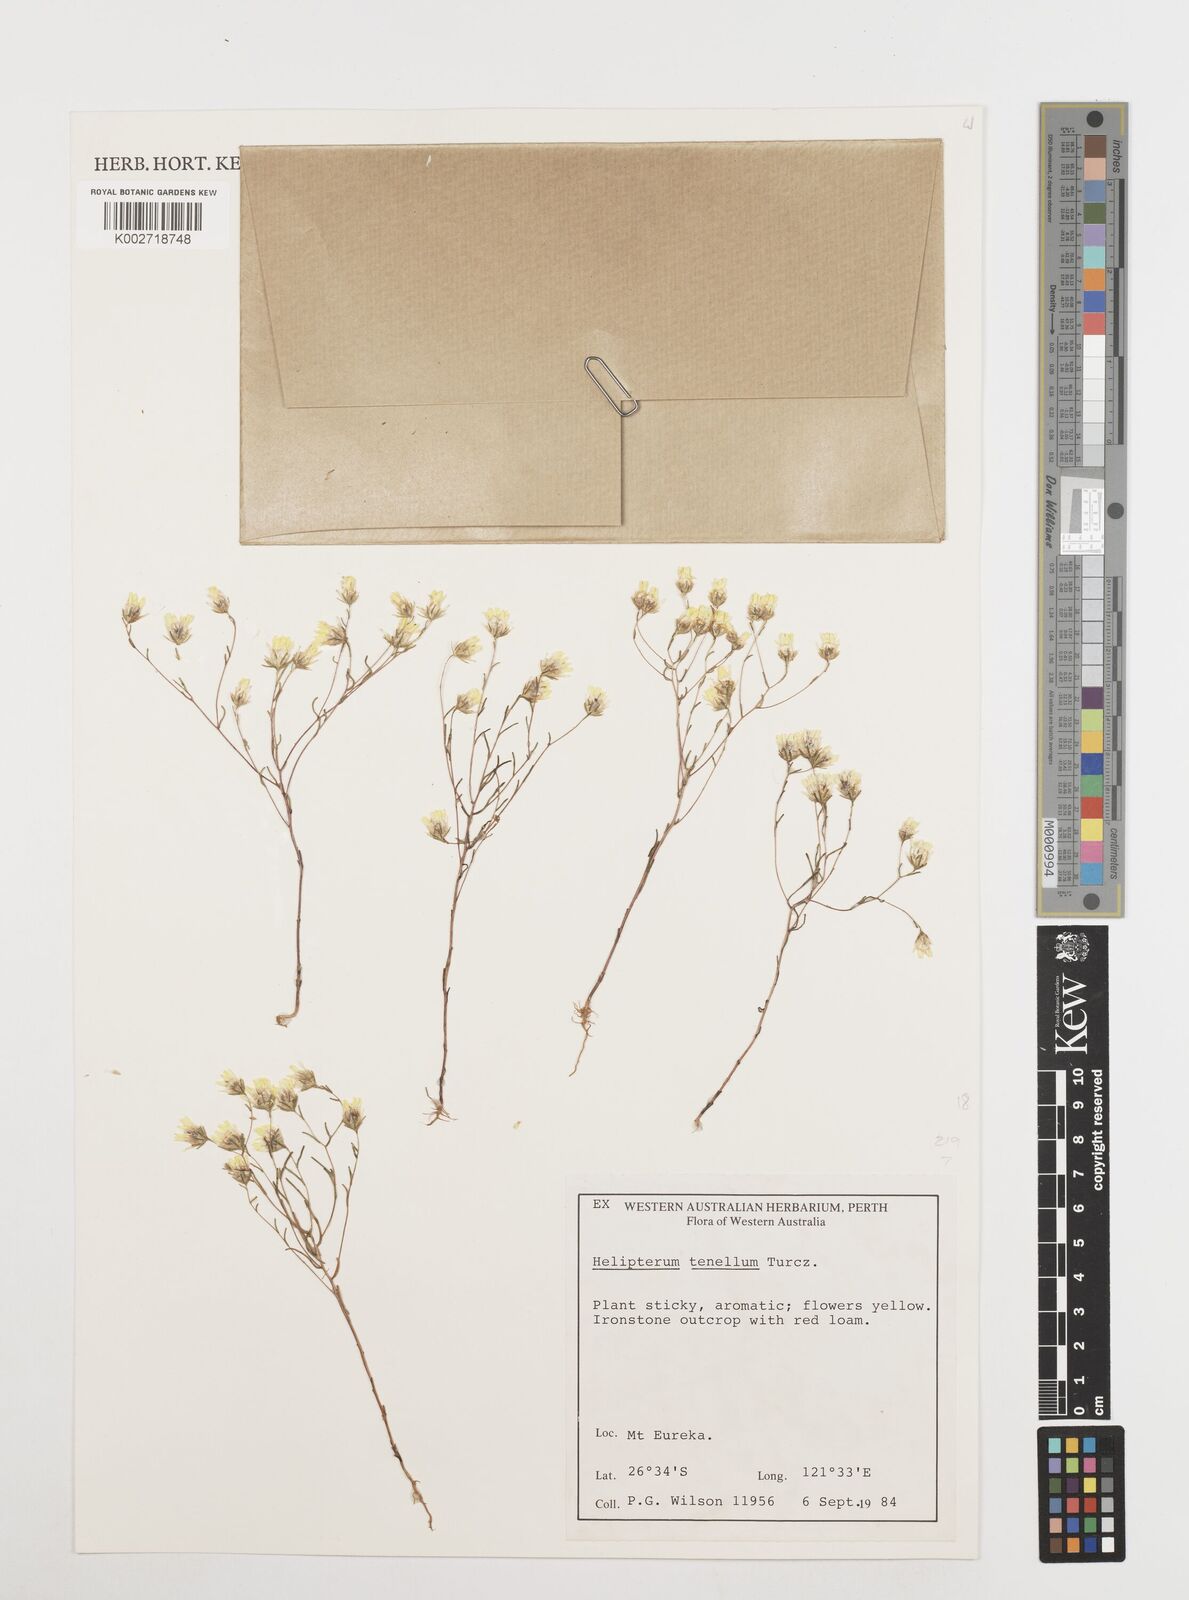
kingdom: Plantae
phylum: Tracheophyta
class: Magnoliopsida
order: Asterales
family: Asteraceae
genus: Erymophyllum
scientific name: Erymophyllum tenellum
